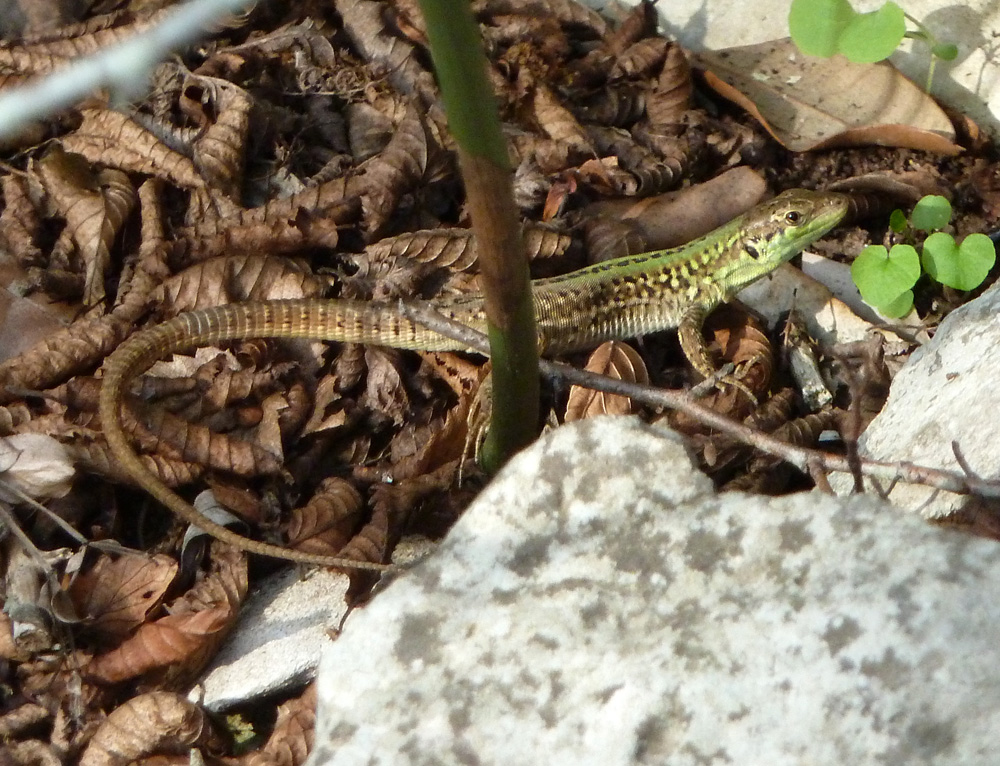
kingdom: Animalia
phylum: Chordata
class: Squamata
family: Lacertidae
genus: Podarcis
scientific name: Podarcis siculus
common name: Italian wall lizard
